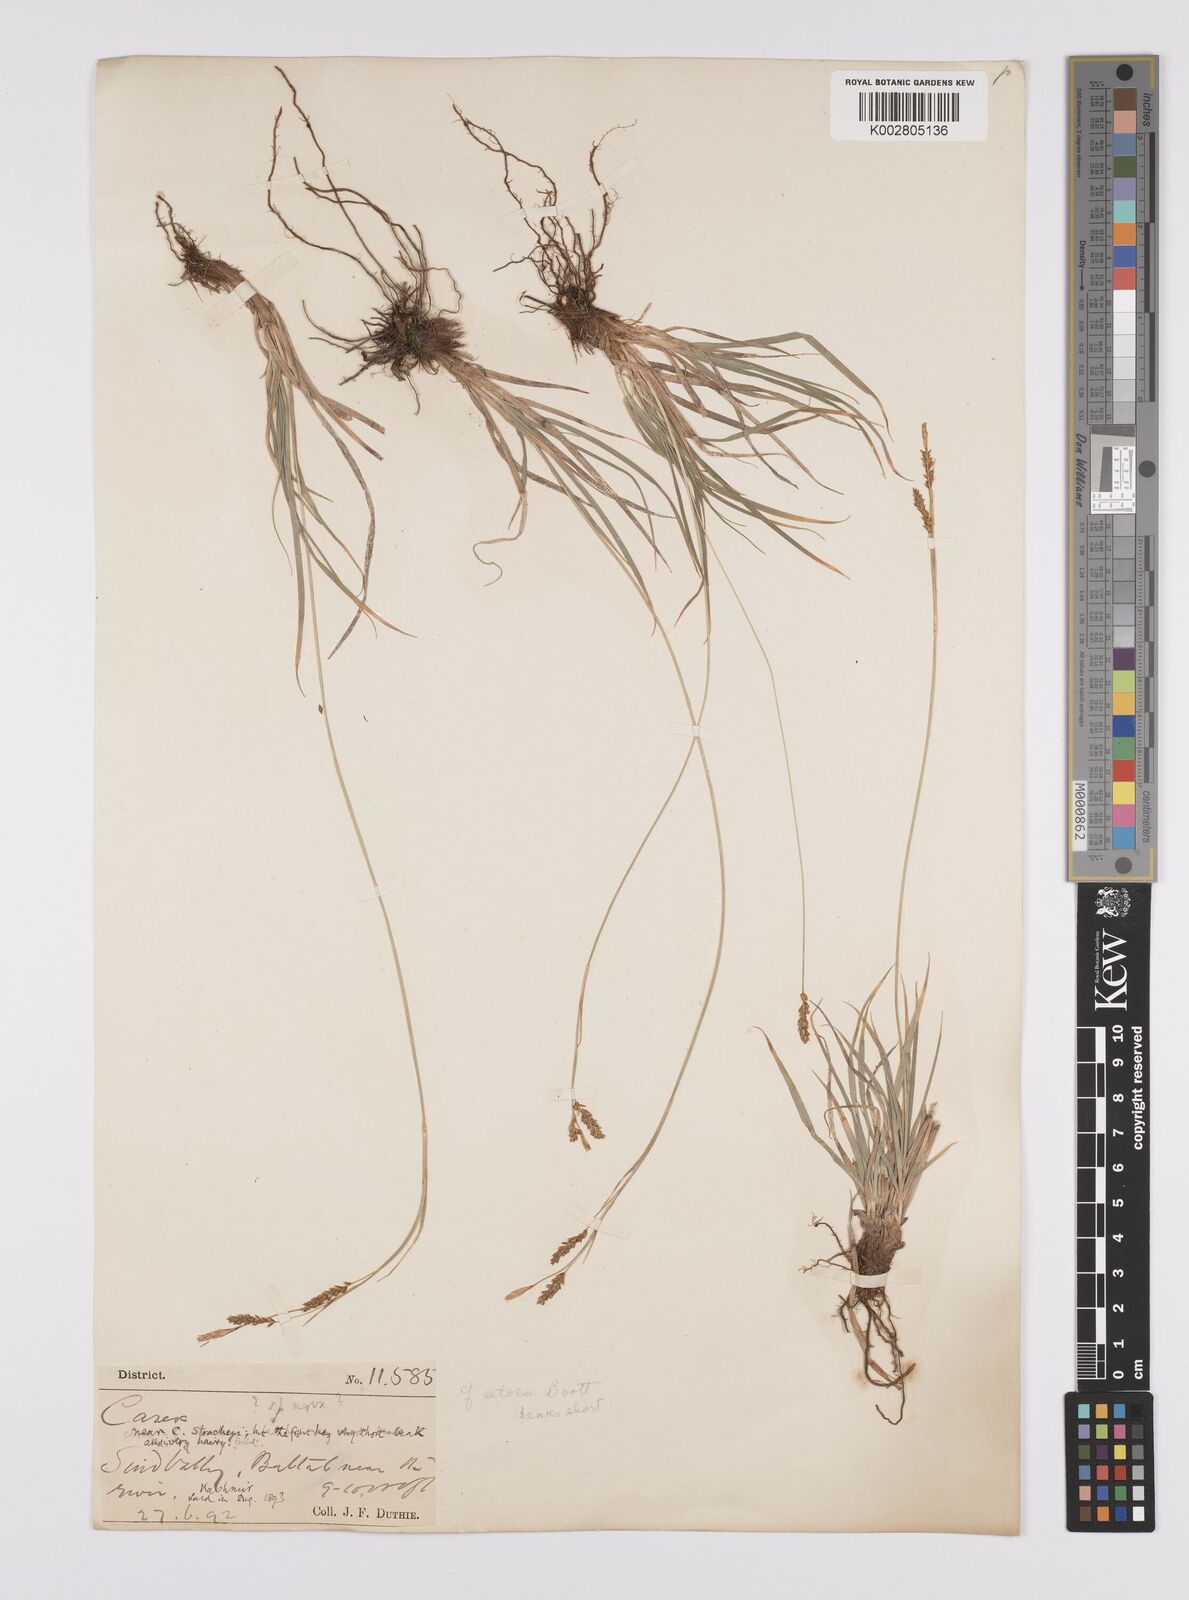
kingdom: Plantae
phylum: Tracheophyta
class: Liliopsida
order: Poales
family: Cyperaceae
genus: Carex
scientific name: Carex setosa
